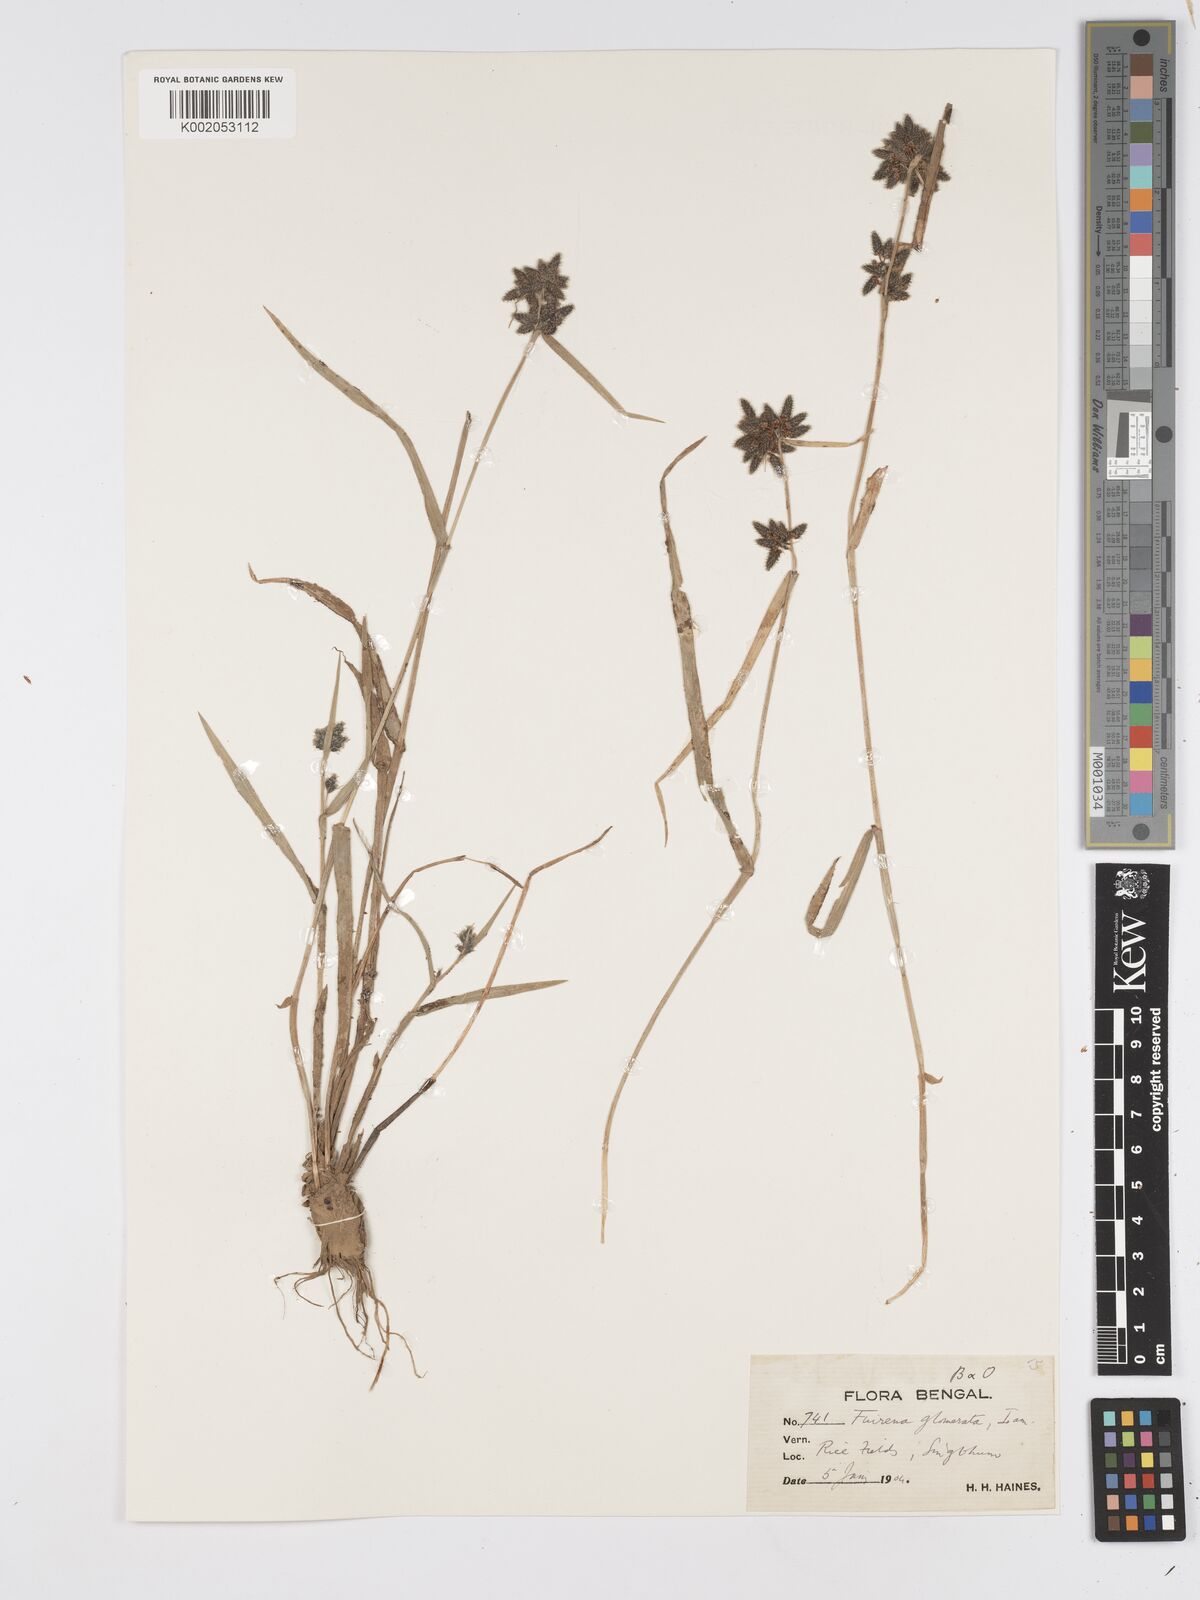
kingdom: Plantae
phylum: Tracheophyta
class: Liliopsida
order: Poales
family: Cyperaceae
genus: Fuirena
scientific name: Fuirena ciliaris
